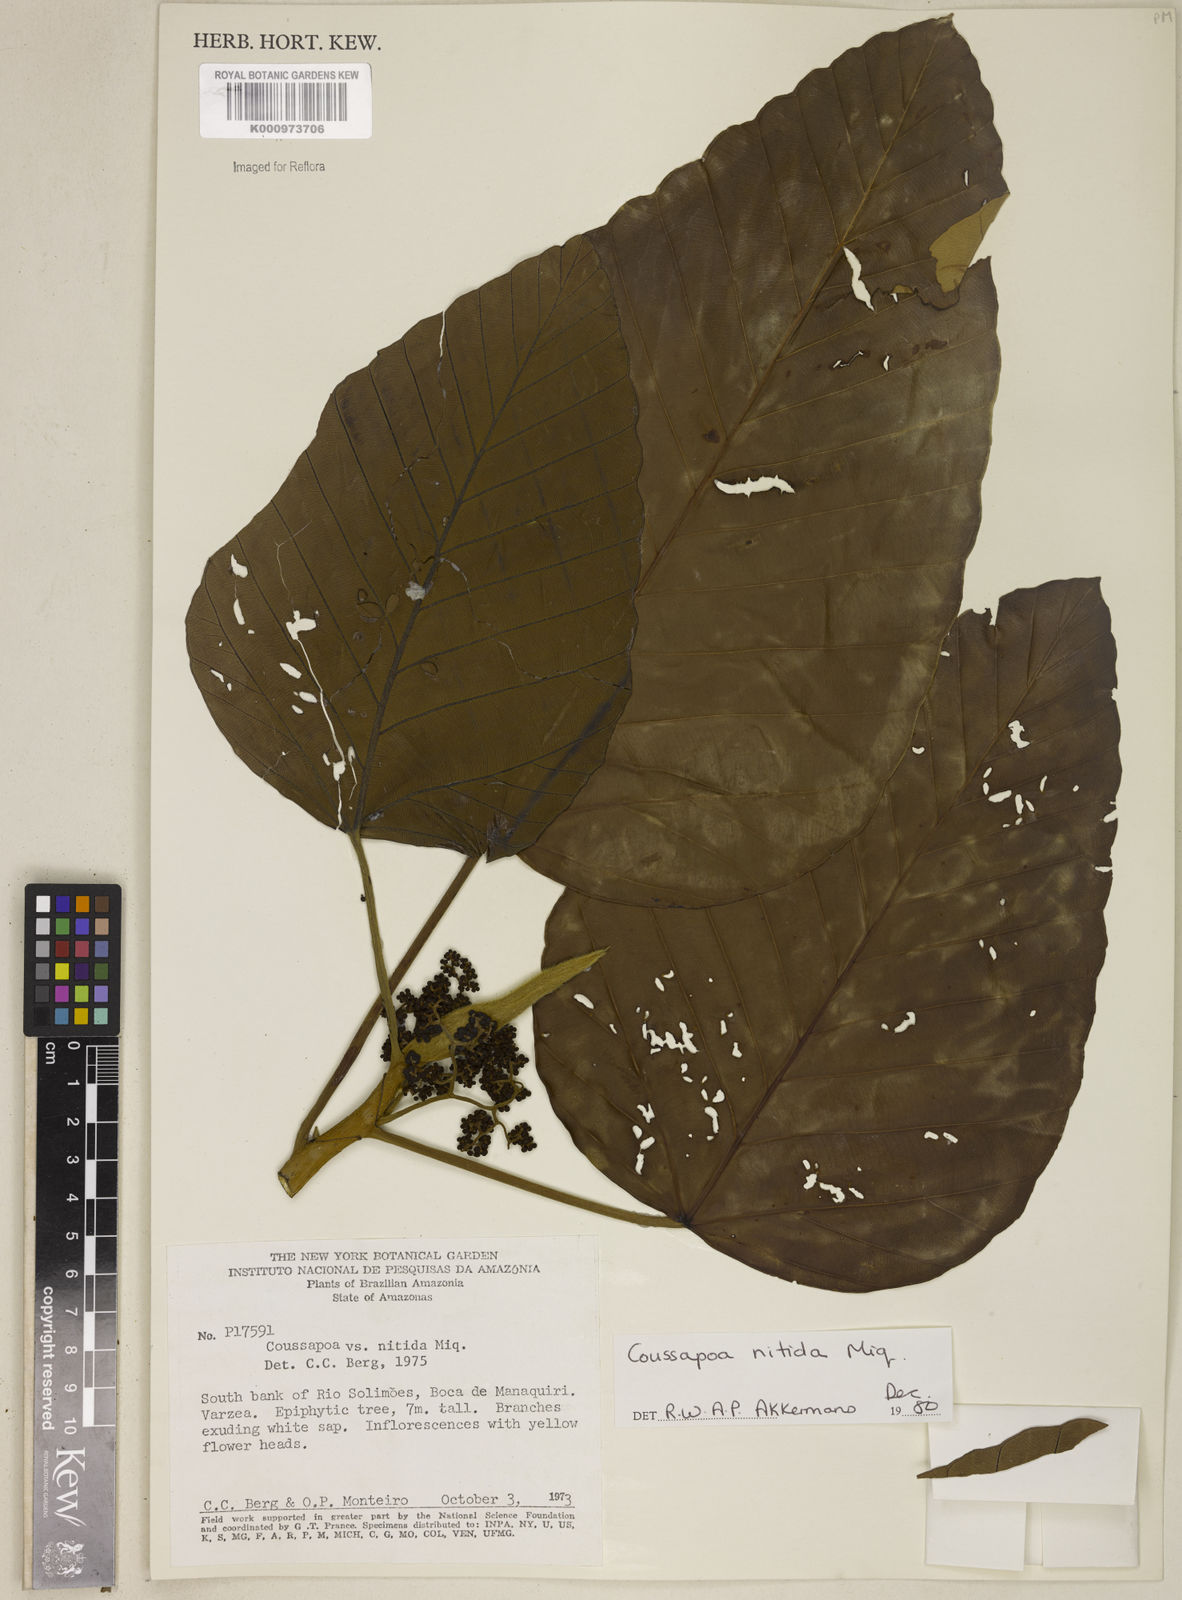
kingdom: Plantae
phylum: Tracheophyta
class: Magnoliopsida
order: Rosales
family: Urticaceae
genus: Coussapoa
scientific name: Coussapoa nitida
